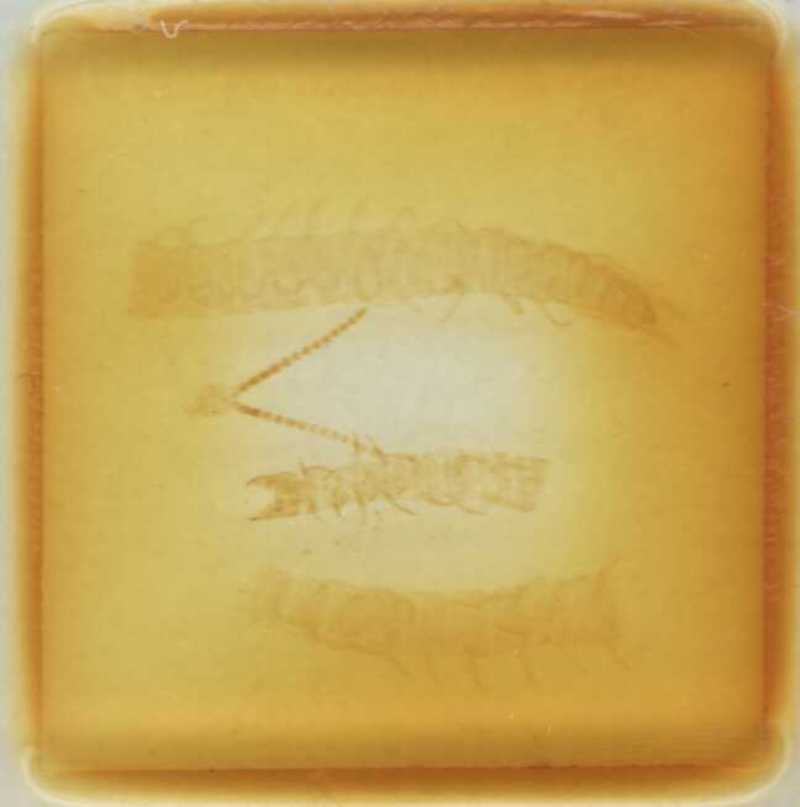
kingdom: Animalia
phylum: Arthropoda
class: Chilopoda
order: Geophilomorpha
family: Linotaeniidae
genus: Strigamia
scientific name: Strigamia transsilvanica
